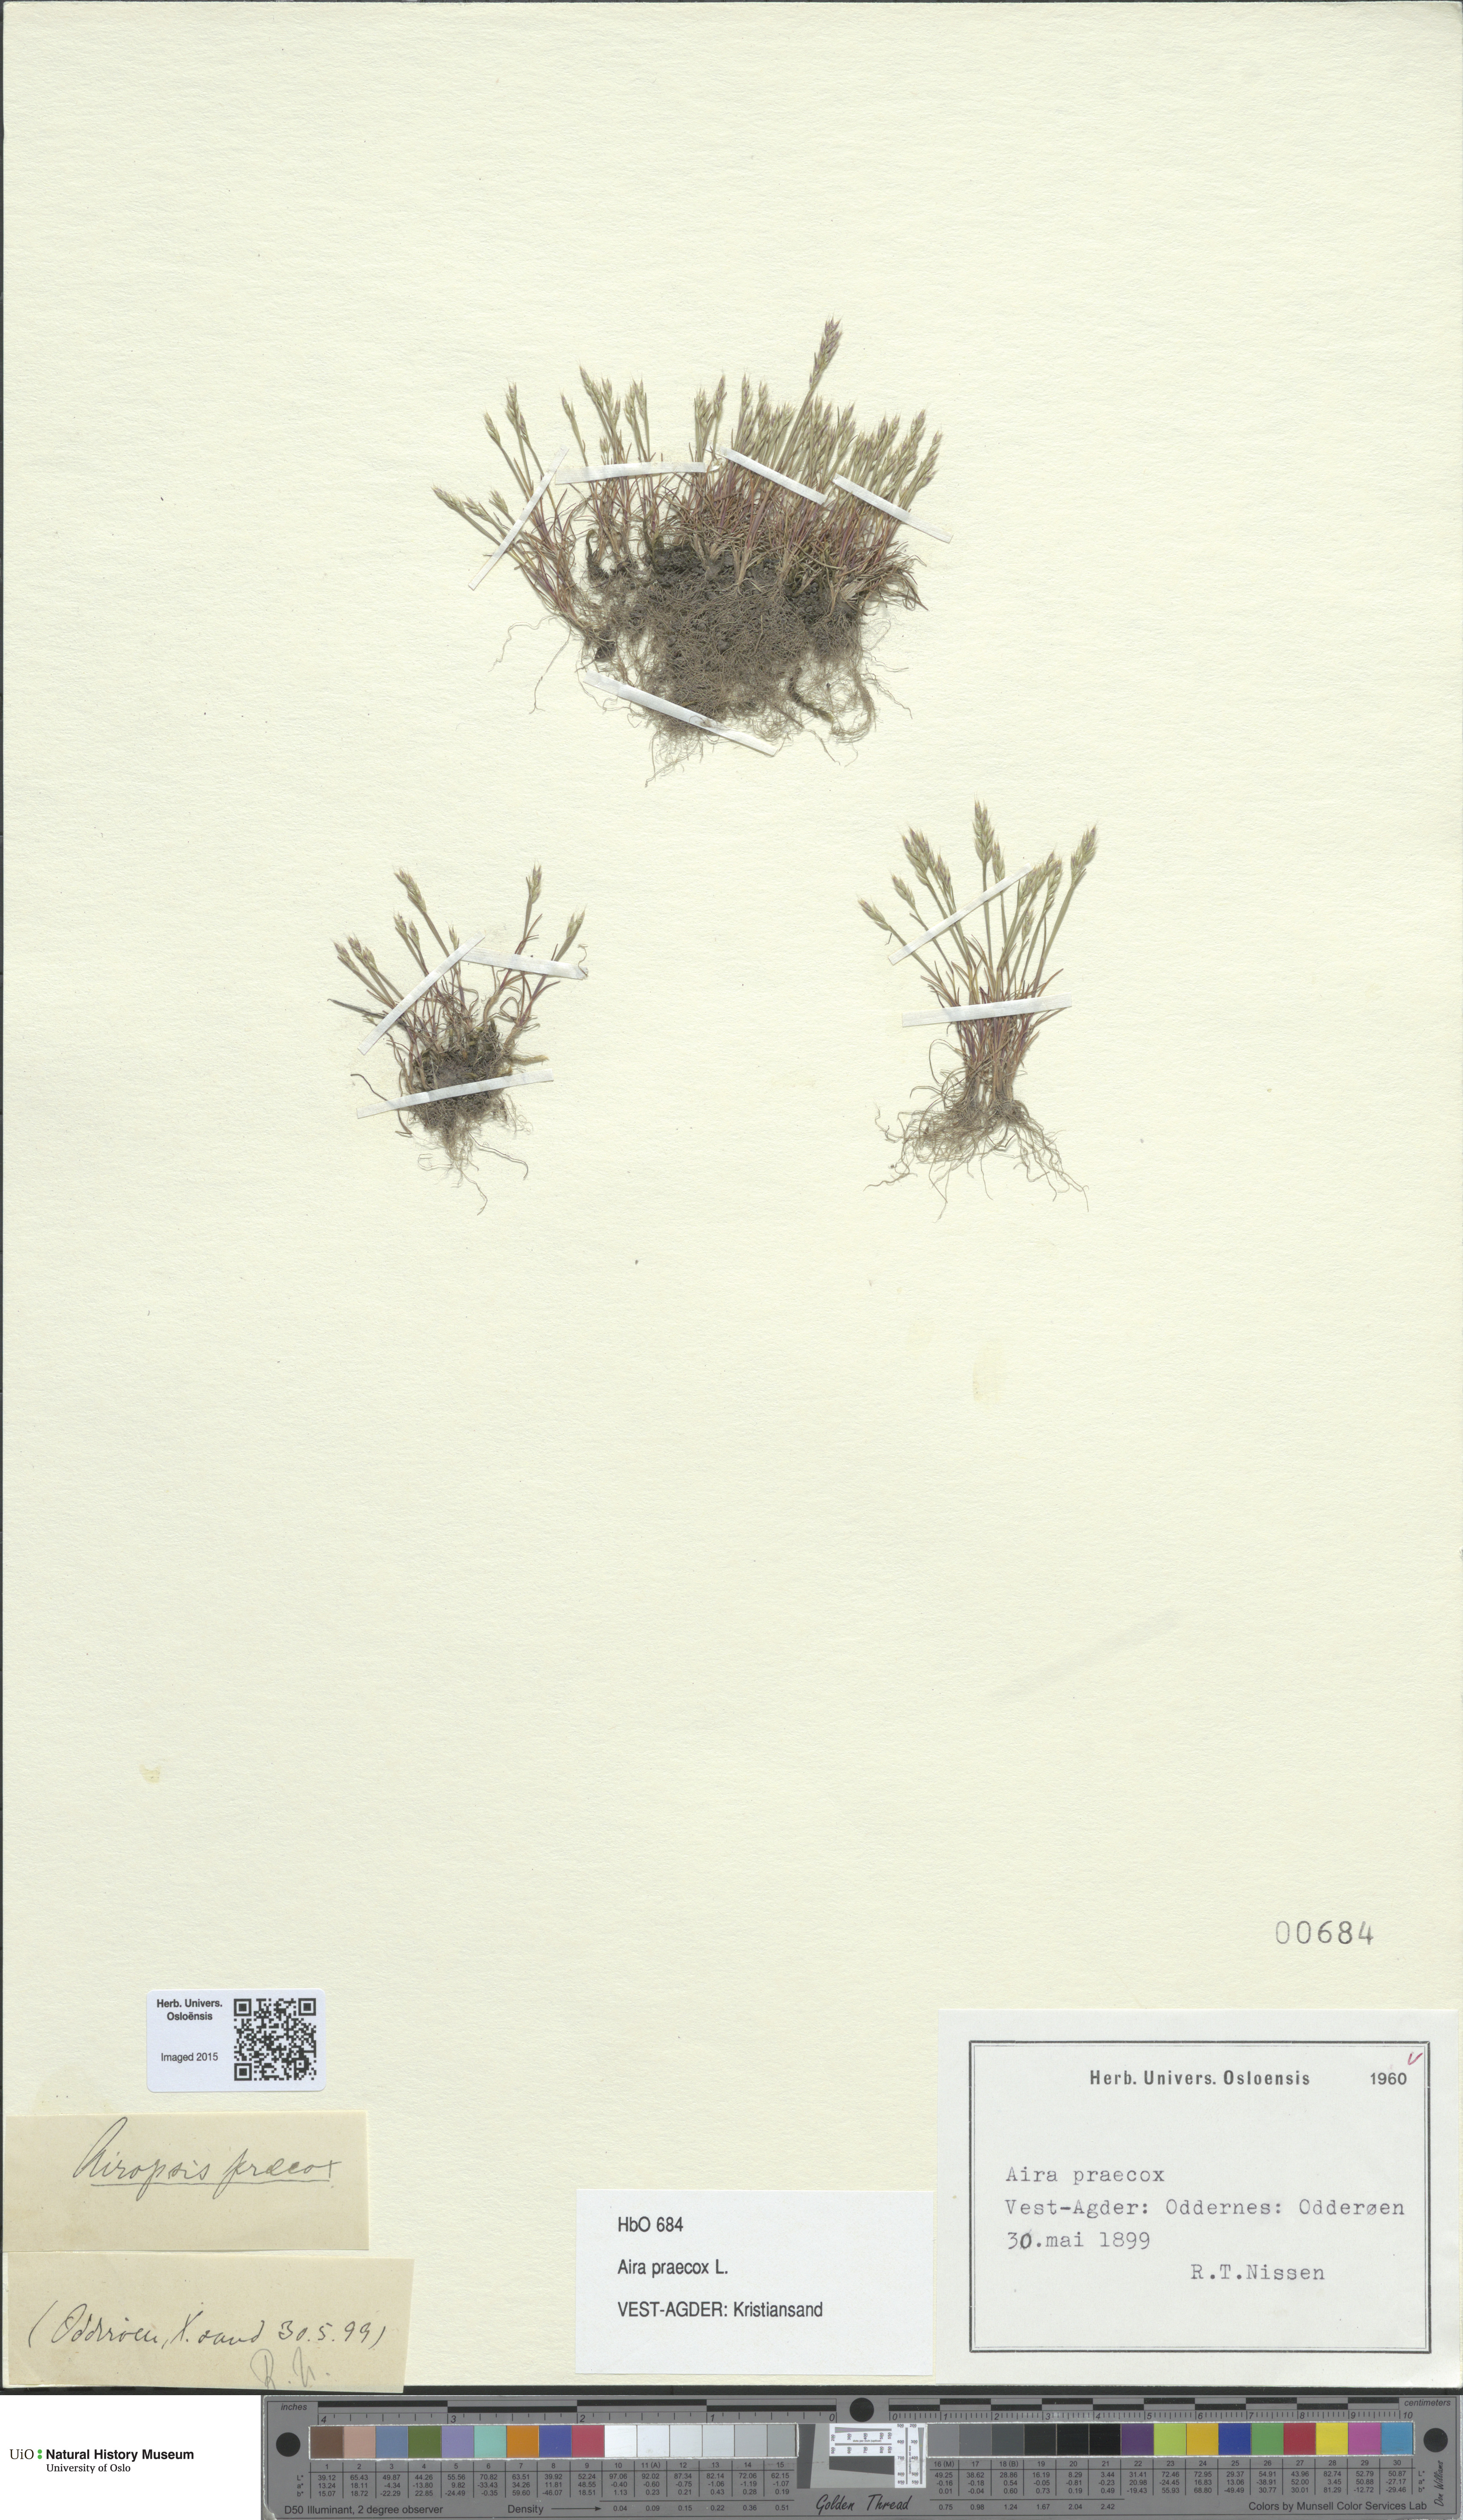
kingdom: Plantae
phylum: Tracheophyta
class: Liliopsida
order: Poales
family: Poaceae
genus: Aira
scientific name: Aira praecox
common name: Early hair-grass
